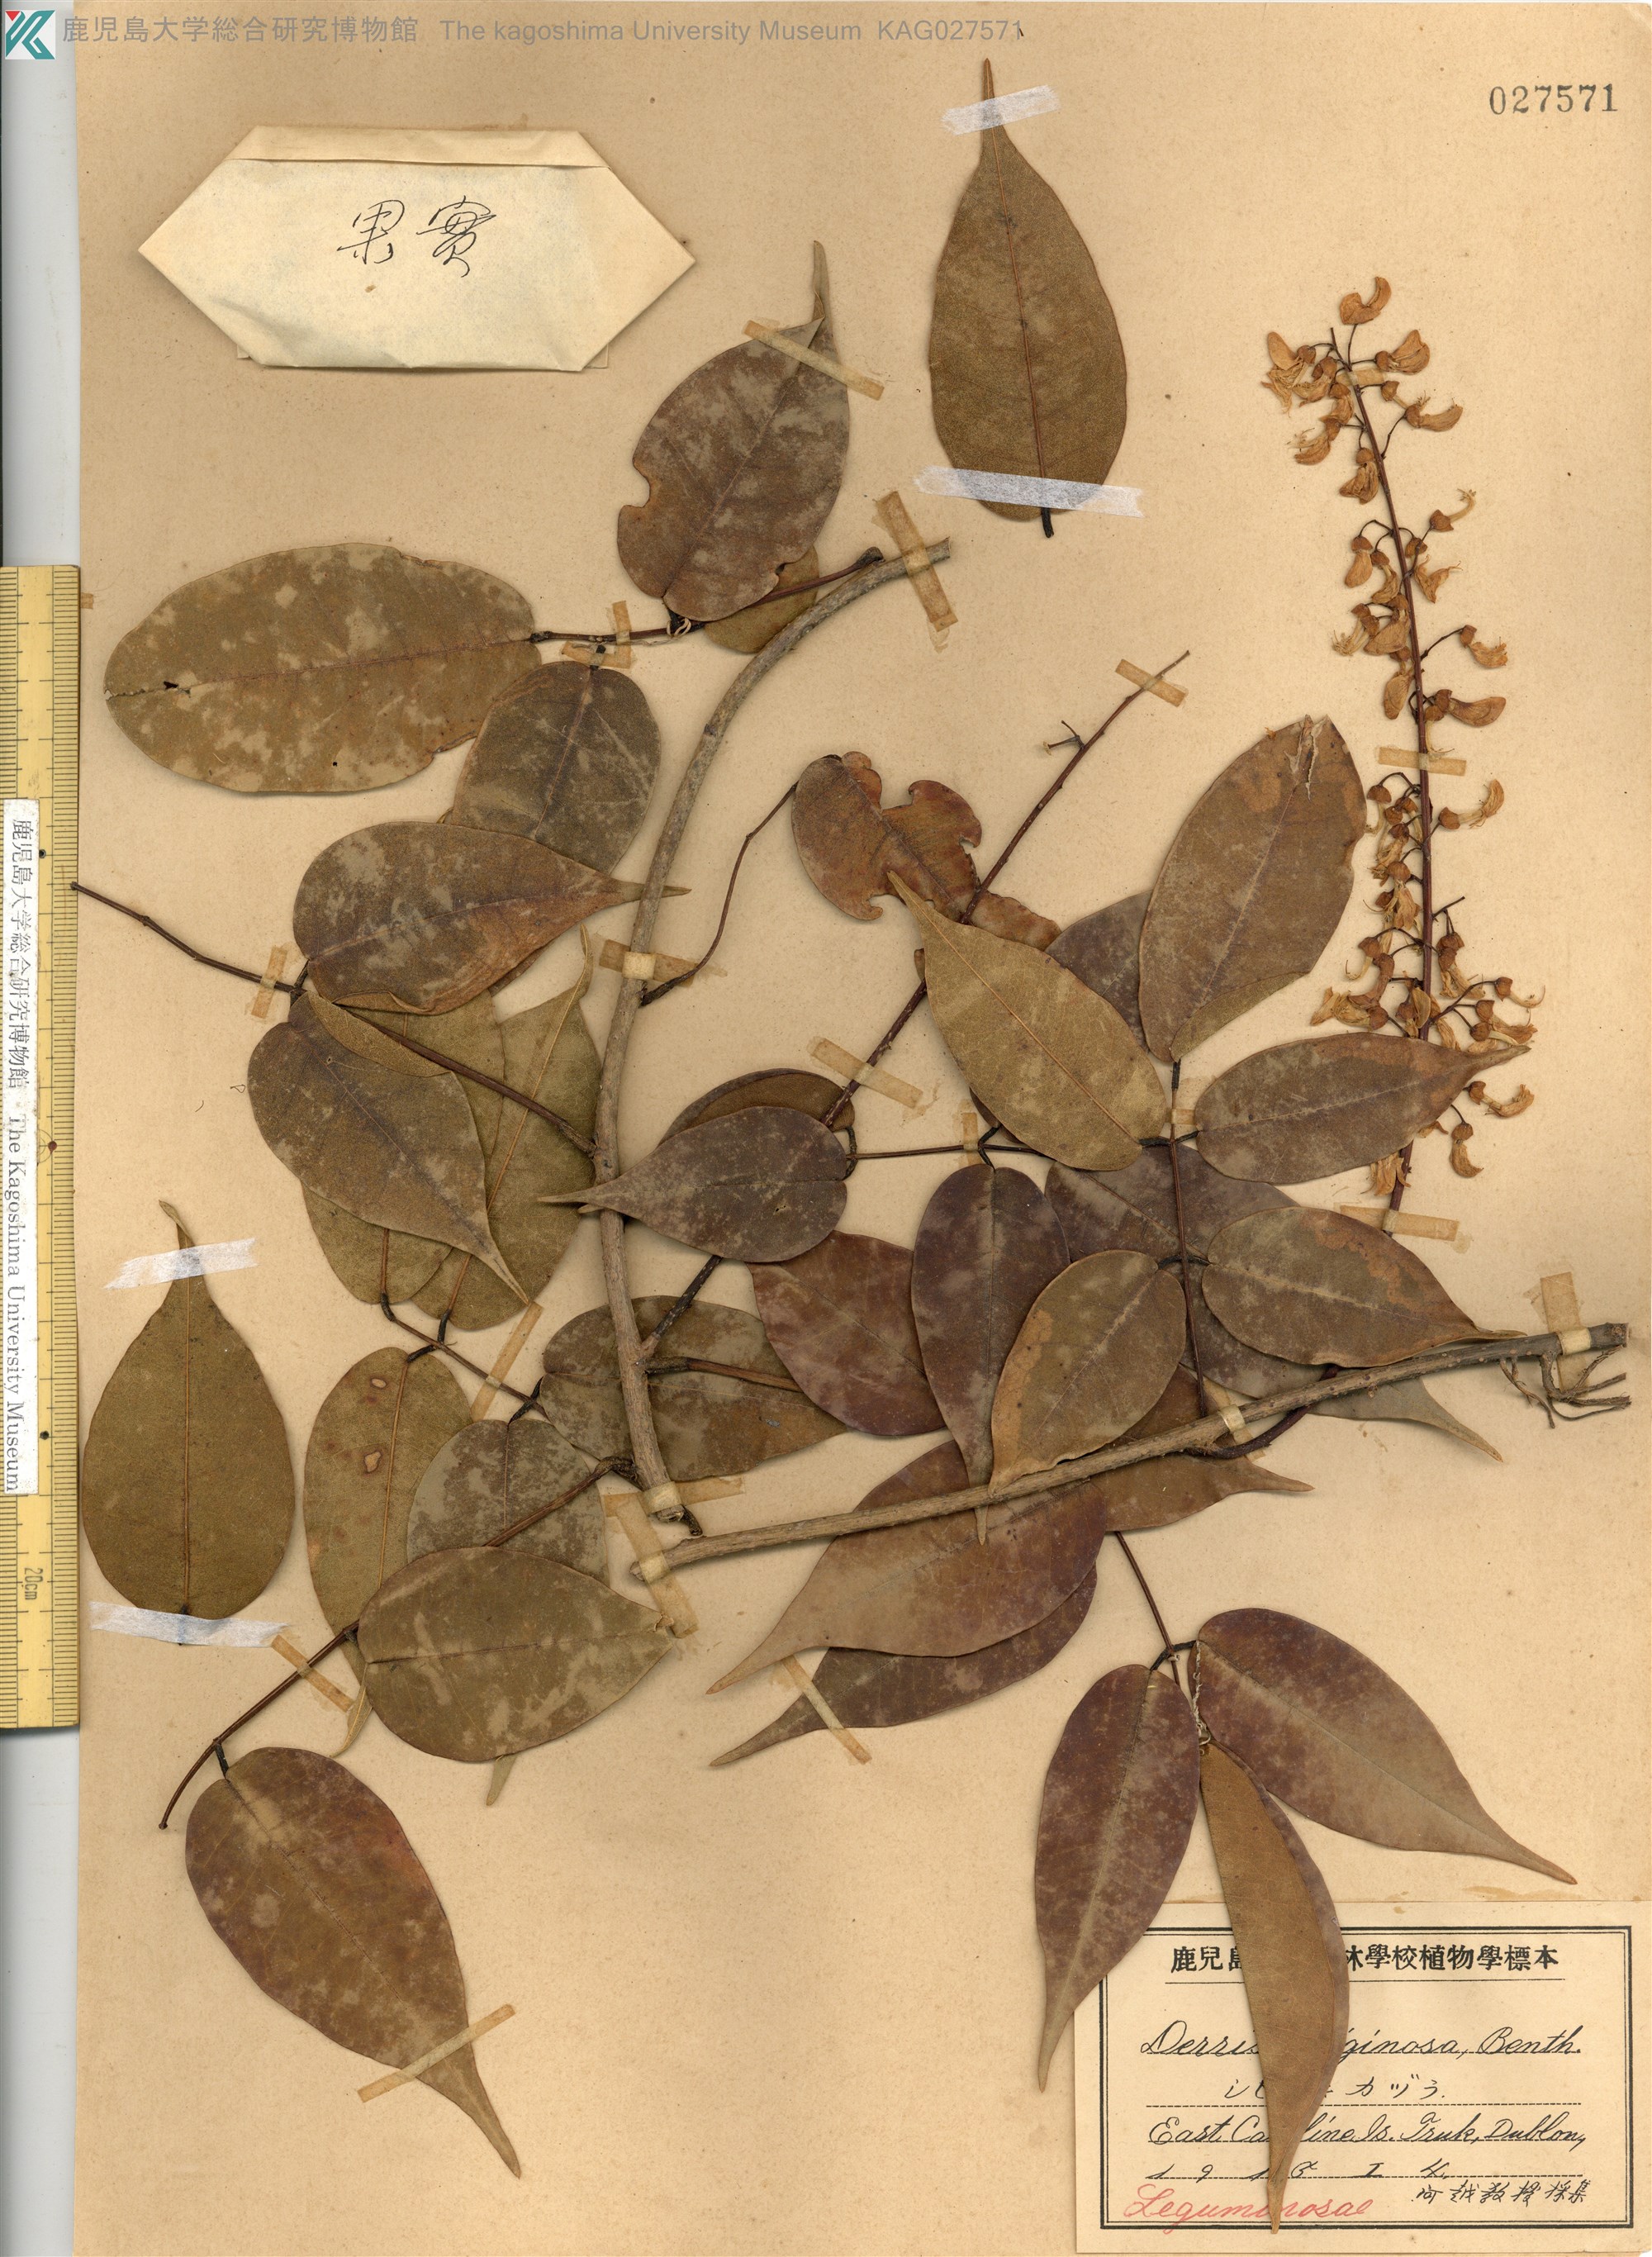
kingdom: Plantae
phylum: Tracheophyta
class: Magnoliopsida
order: Fabales
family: Fabaceae
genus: Derris
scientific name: Derris trifoliata
